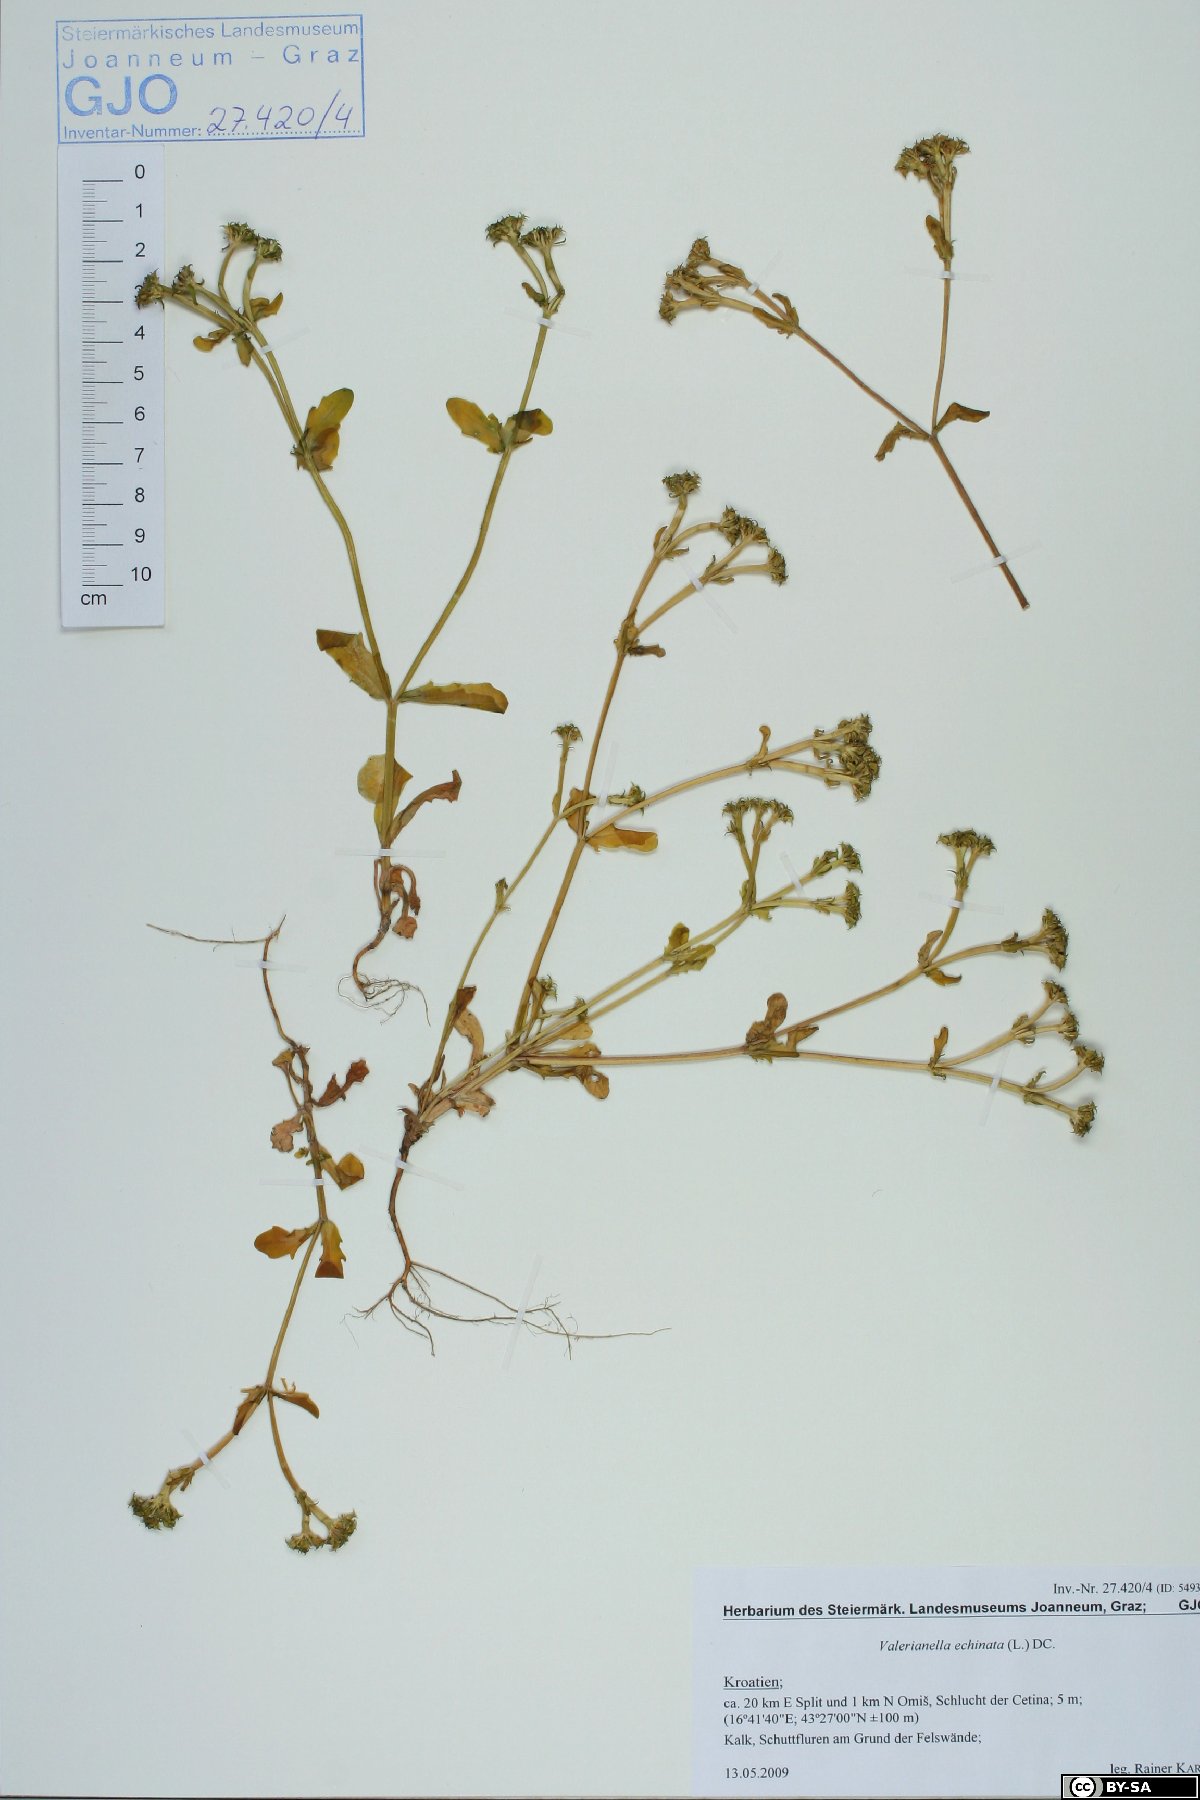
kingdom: Plantae
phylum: Tracheophyta
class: Magnoliopsida
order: Dipsacales
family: Caprifoliaceae
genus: Valerianella
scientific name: Valerianella echinata
